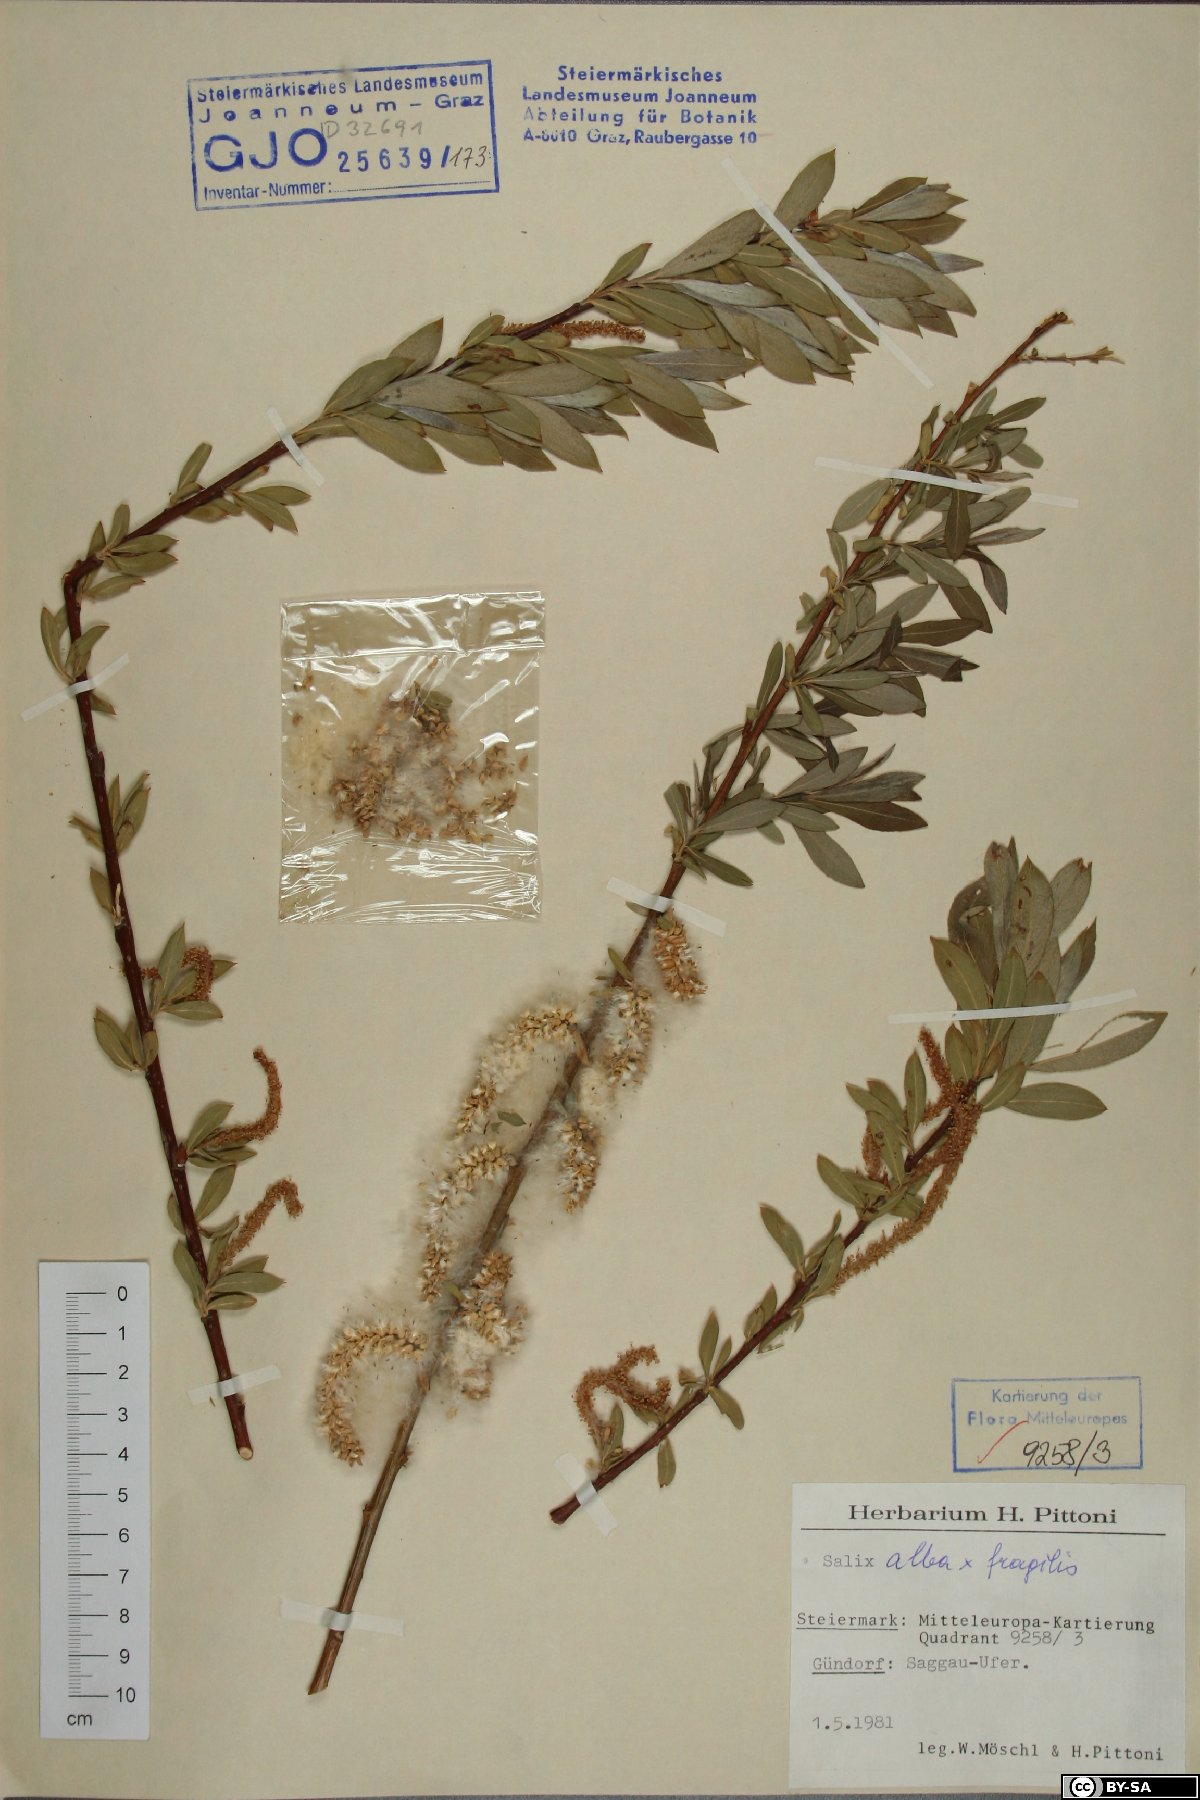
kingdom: Plantae
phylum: Tracheophyta
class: Magnoliopsida
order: Malpighiales
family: Salicaceae
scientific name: Salicaceae
